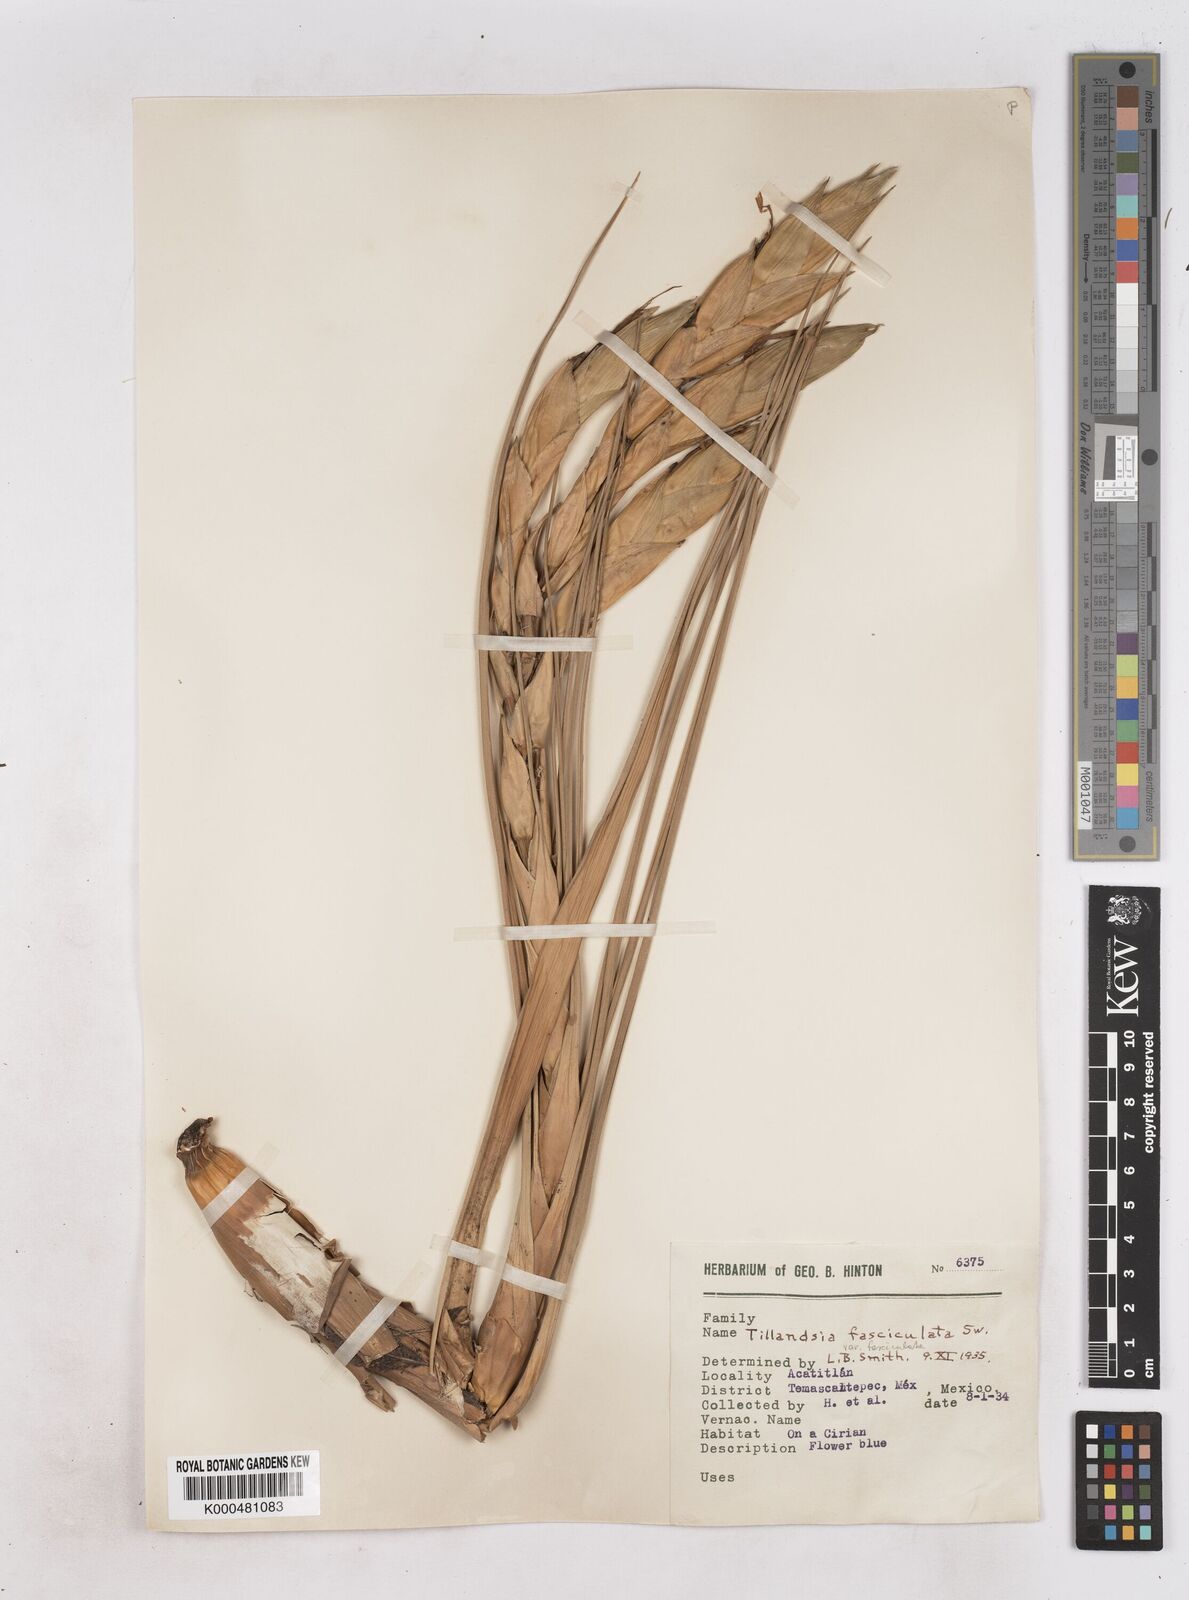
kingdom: Plantae
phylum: Tracheophyta
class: Liliopsida
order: Poales
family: Bromeliaceae
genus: Tillandsia
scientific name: Tillandsia fasciculata
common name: Giant airplant
